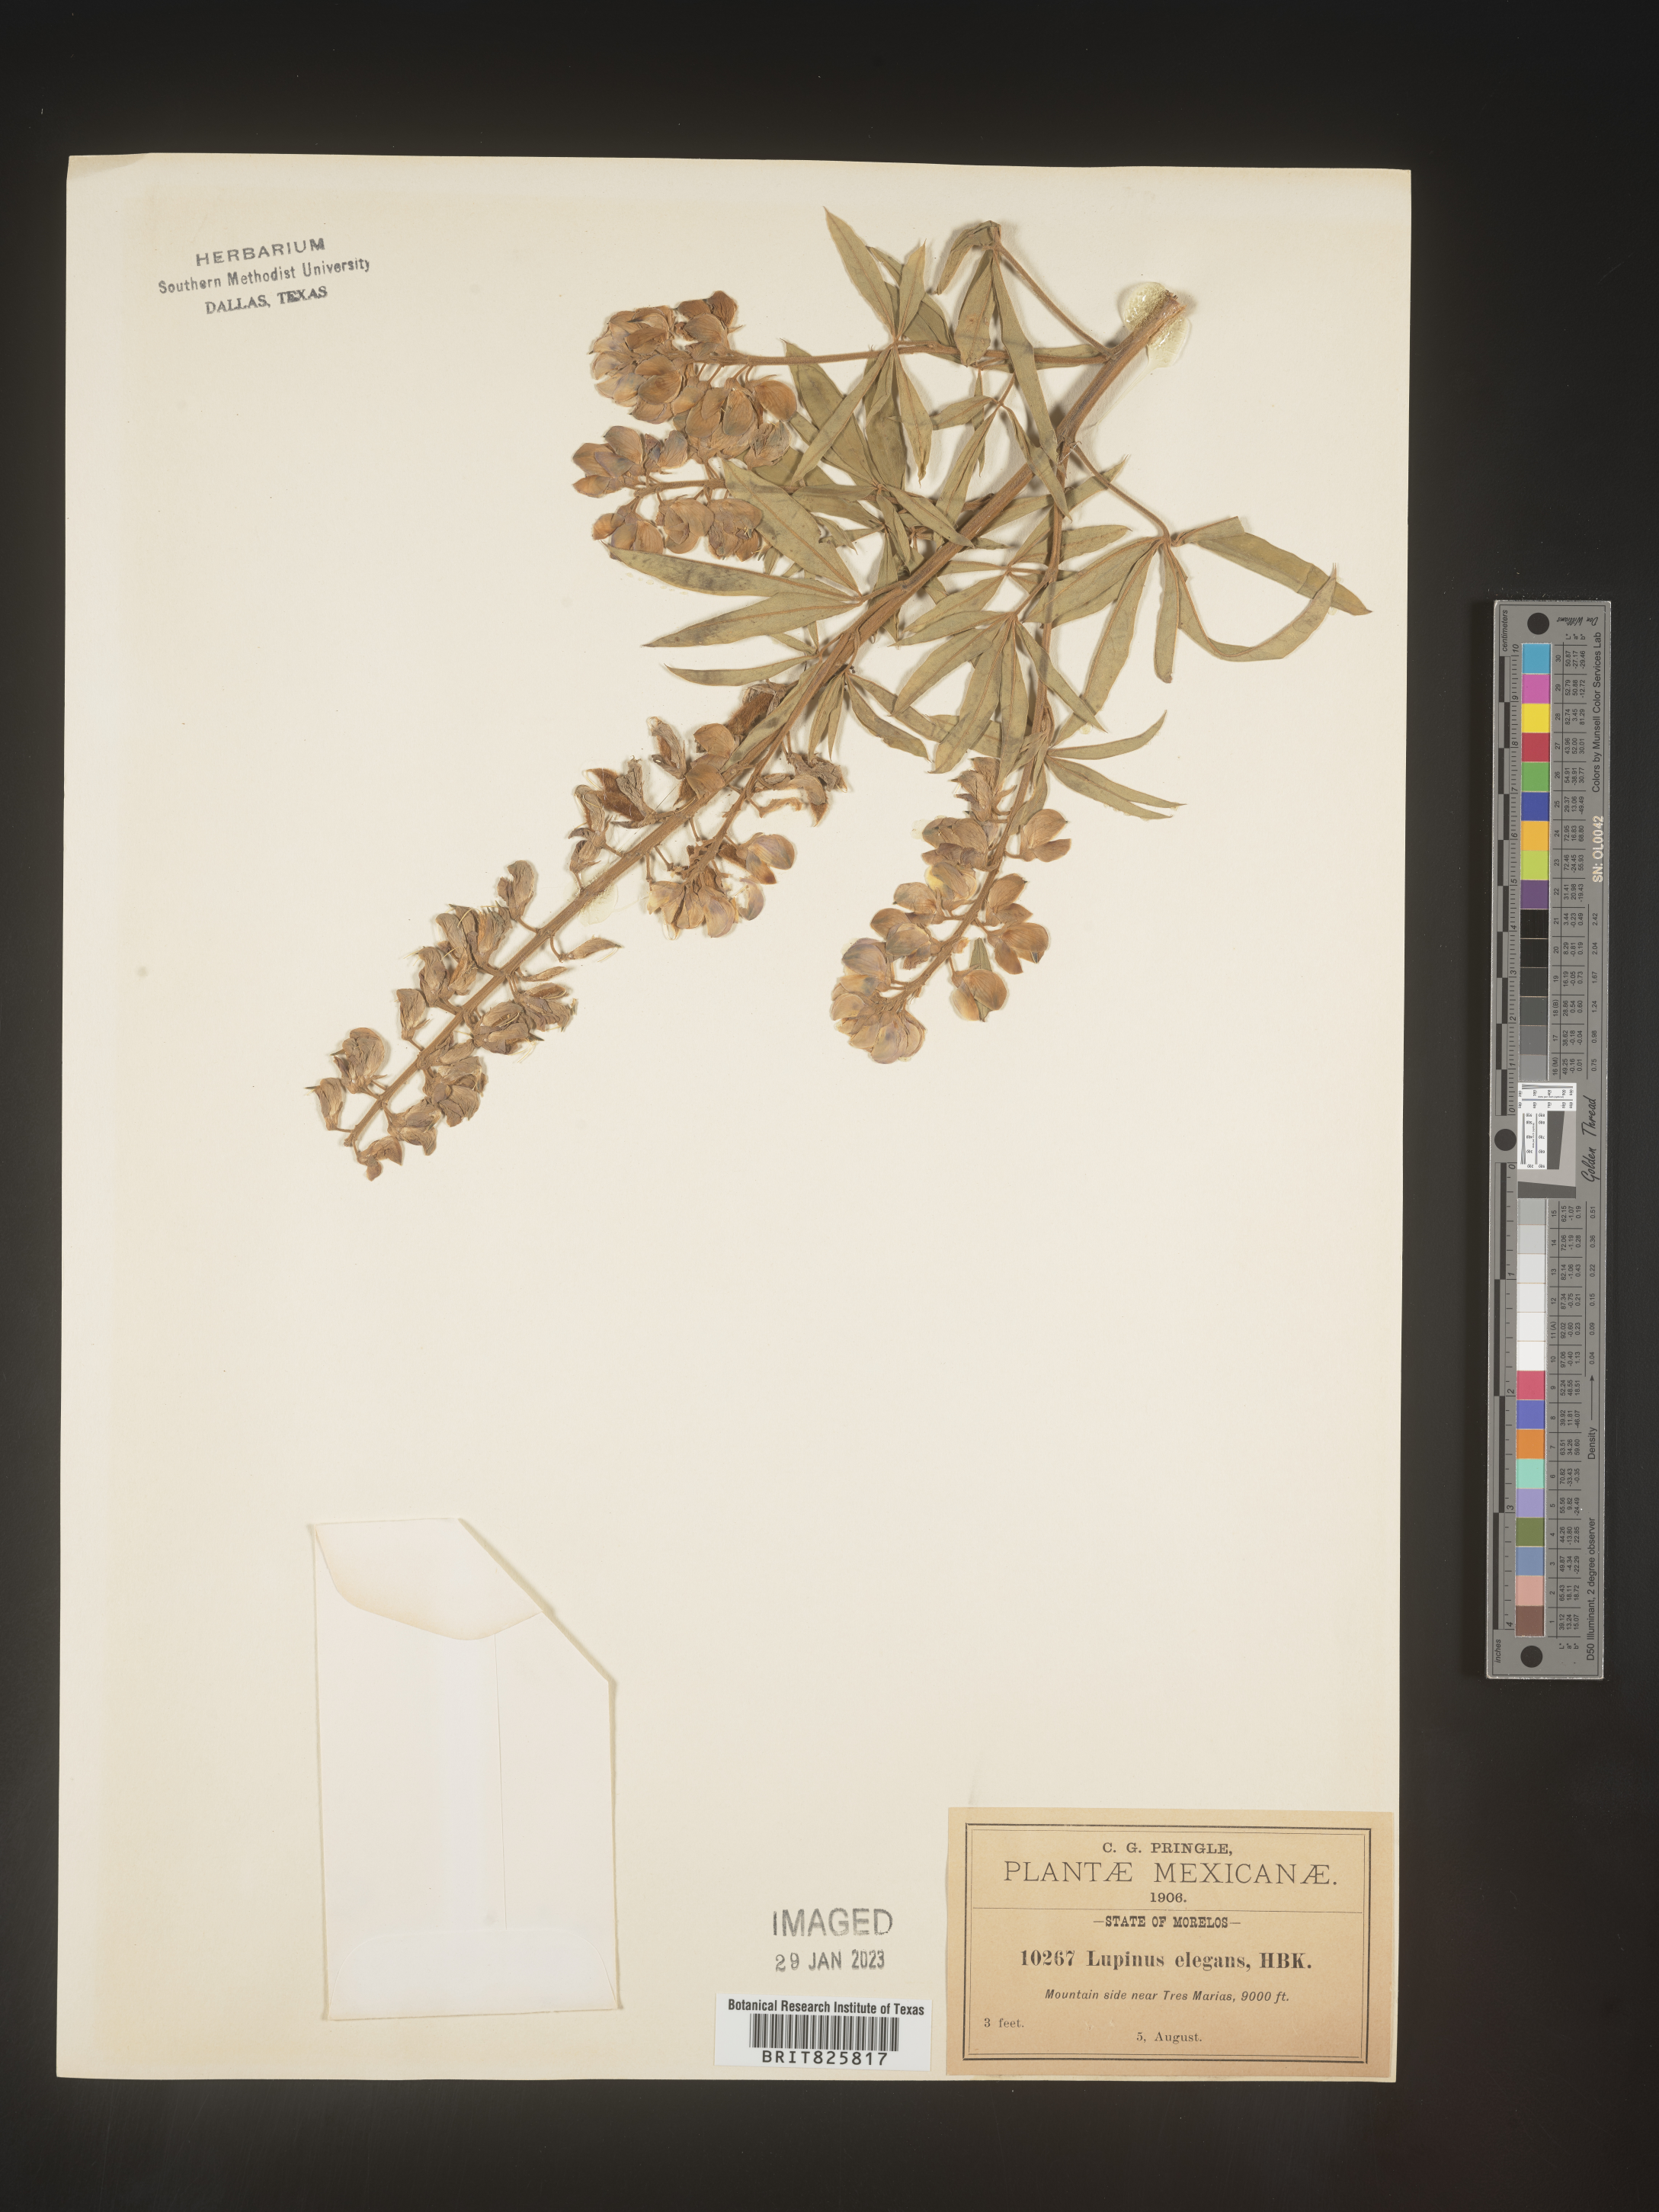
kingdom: Plantae
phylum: Tracheophyta
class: Magnoliopsida
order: Fabales
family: Fabaceae
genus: Lupinus
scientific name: Lupinus
